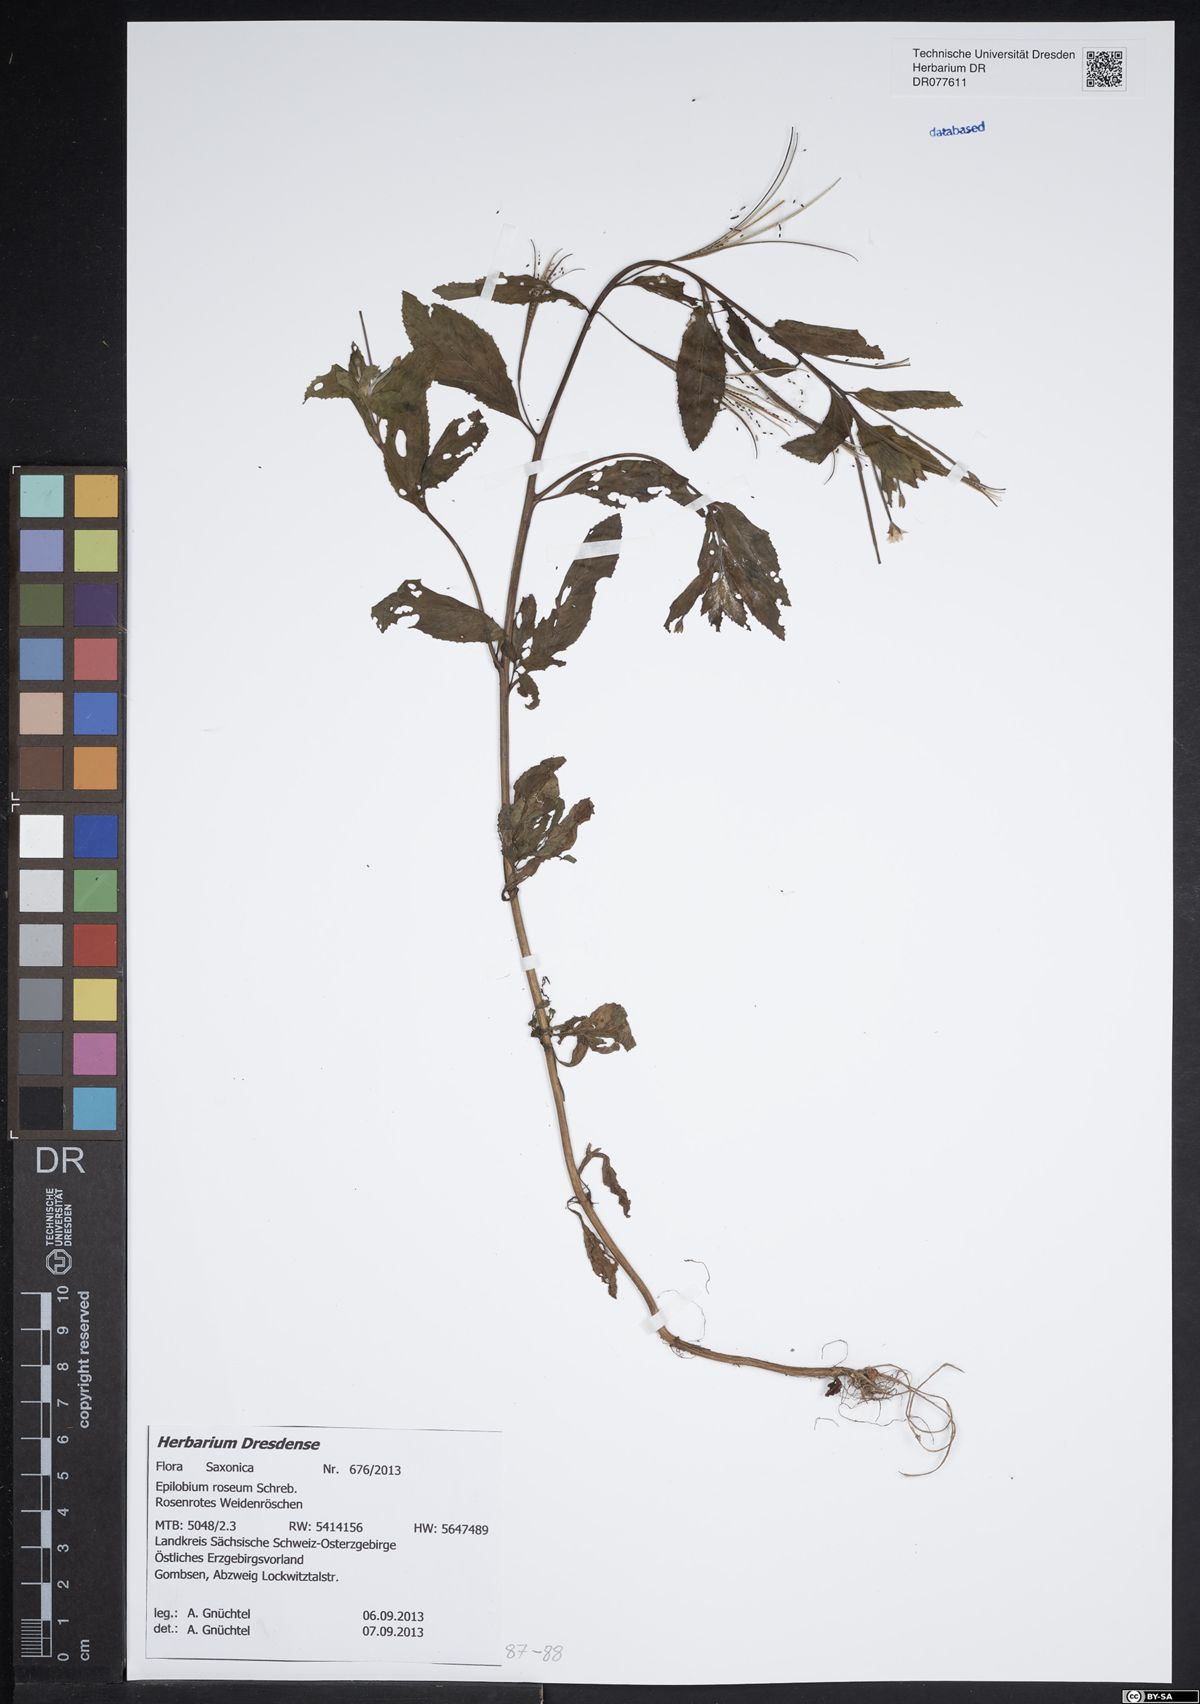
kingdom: Plantae
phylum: Tracheophyta
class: Magnoliopsida
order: Myrtales
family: Onagraceae
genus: Epilobium
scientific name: Epilobium roseum
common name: Pale willowherb
